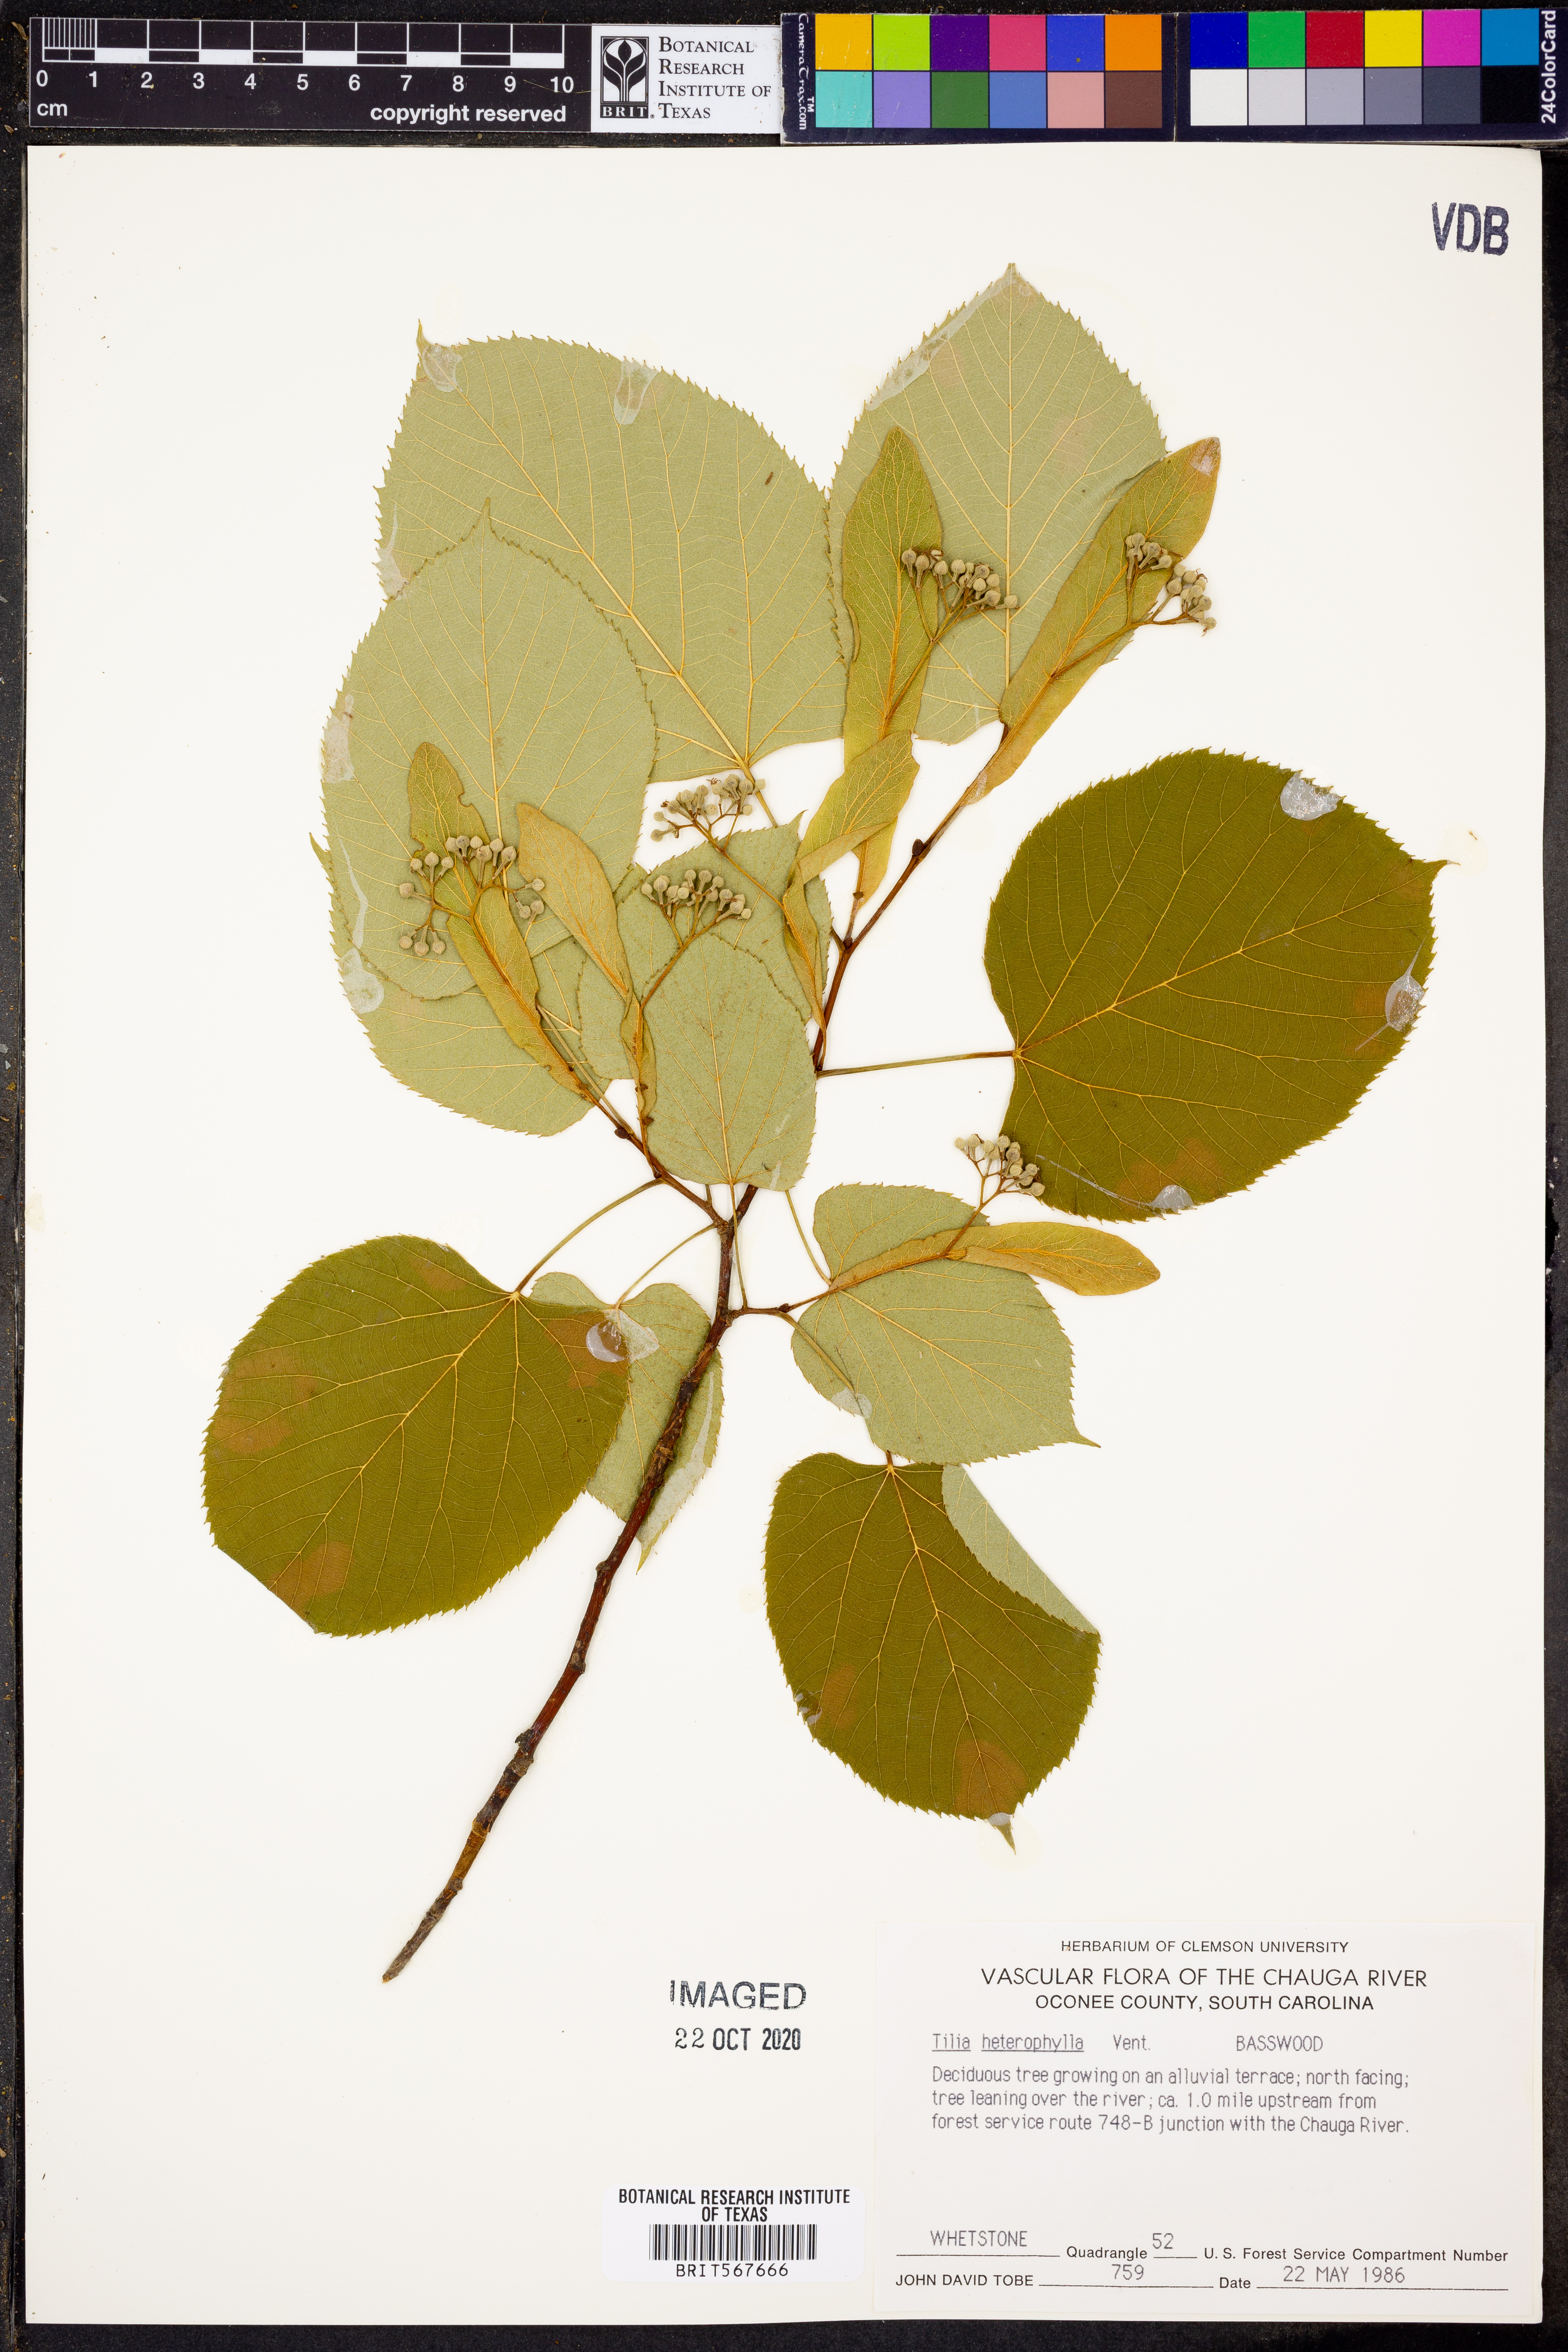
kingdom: Plantae
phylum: Tracheophyta
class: Magnoliopsida
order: Malvales
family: Malvaceae
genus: Tilia
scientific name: Tilia americana
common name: Basswood
